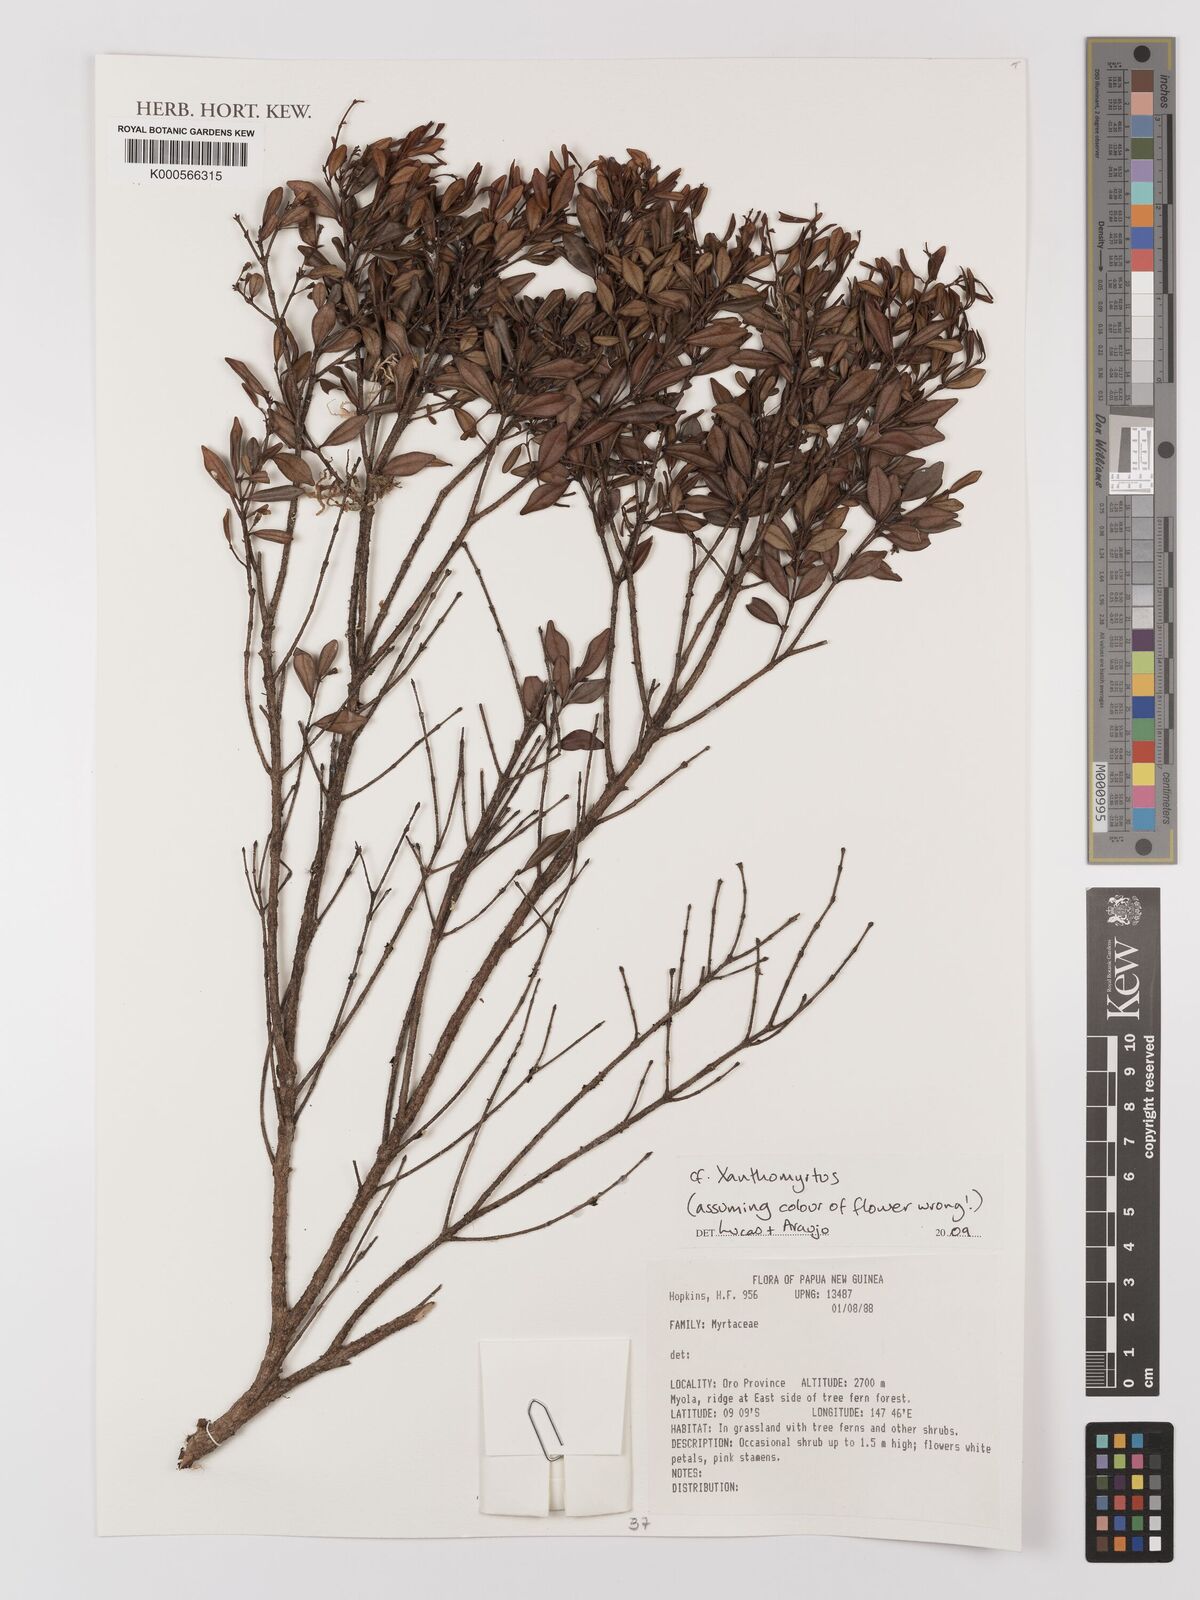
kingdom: Plantae
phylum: Tracheophyta
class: Magnoliopsida
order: Myrtales
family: Myrtaceae
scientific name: Myrtaceae
